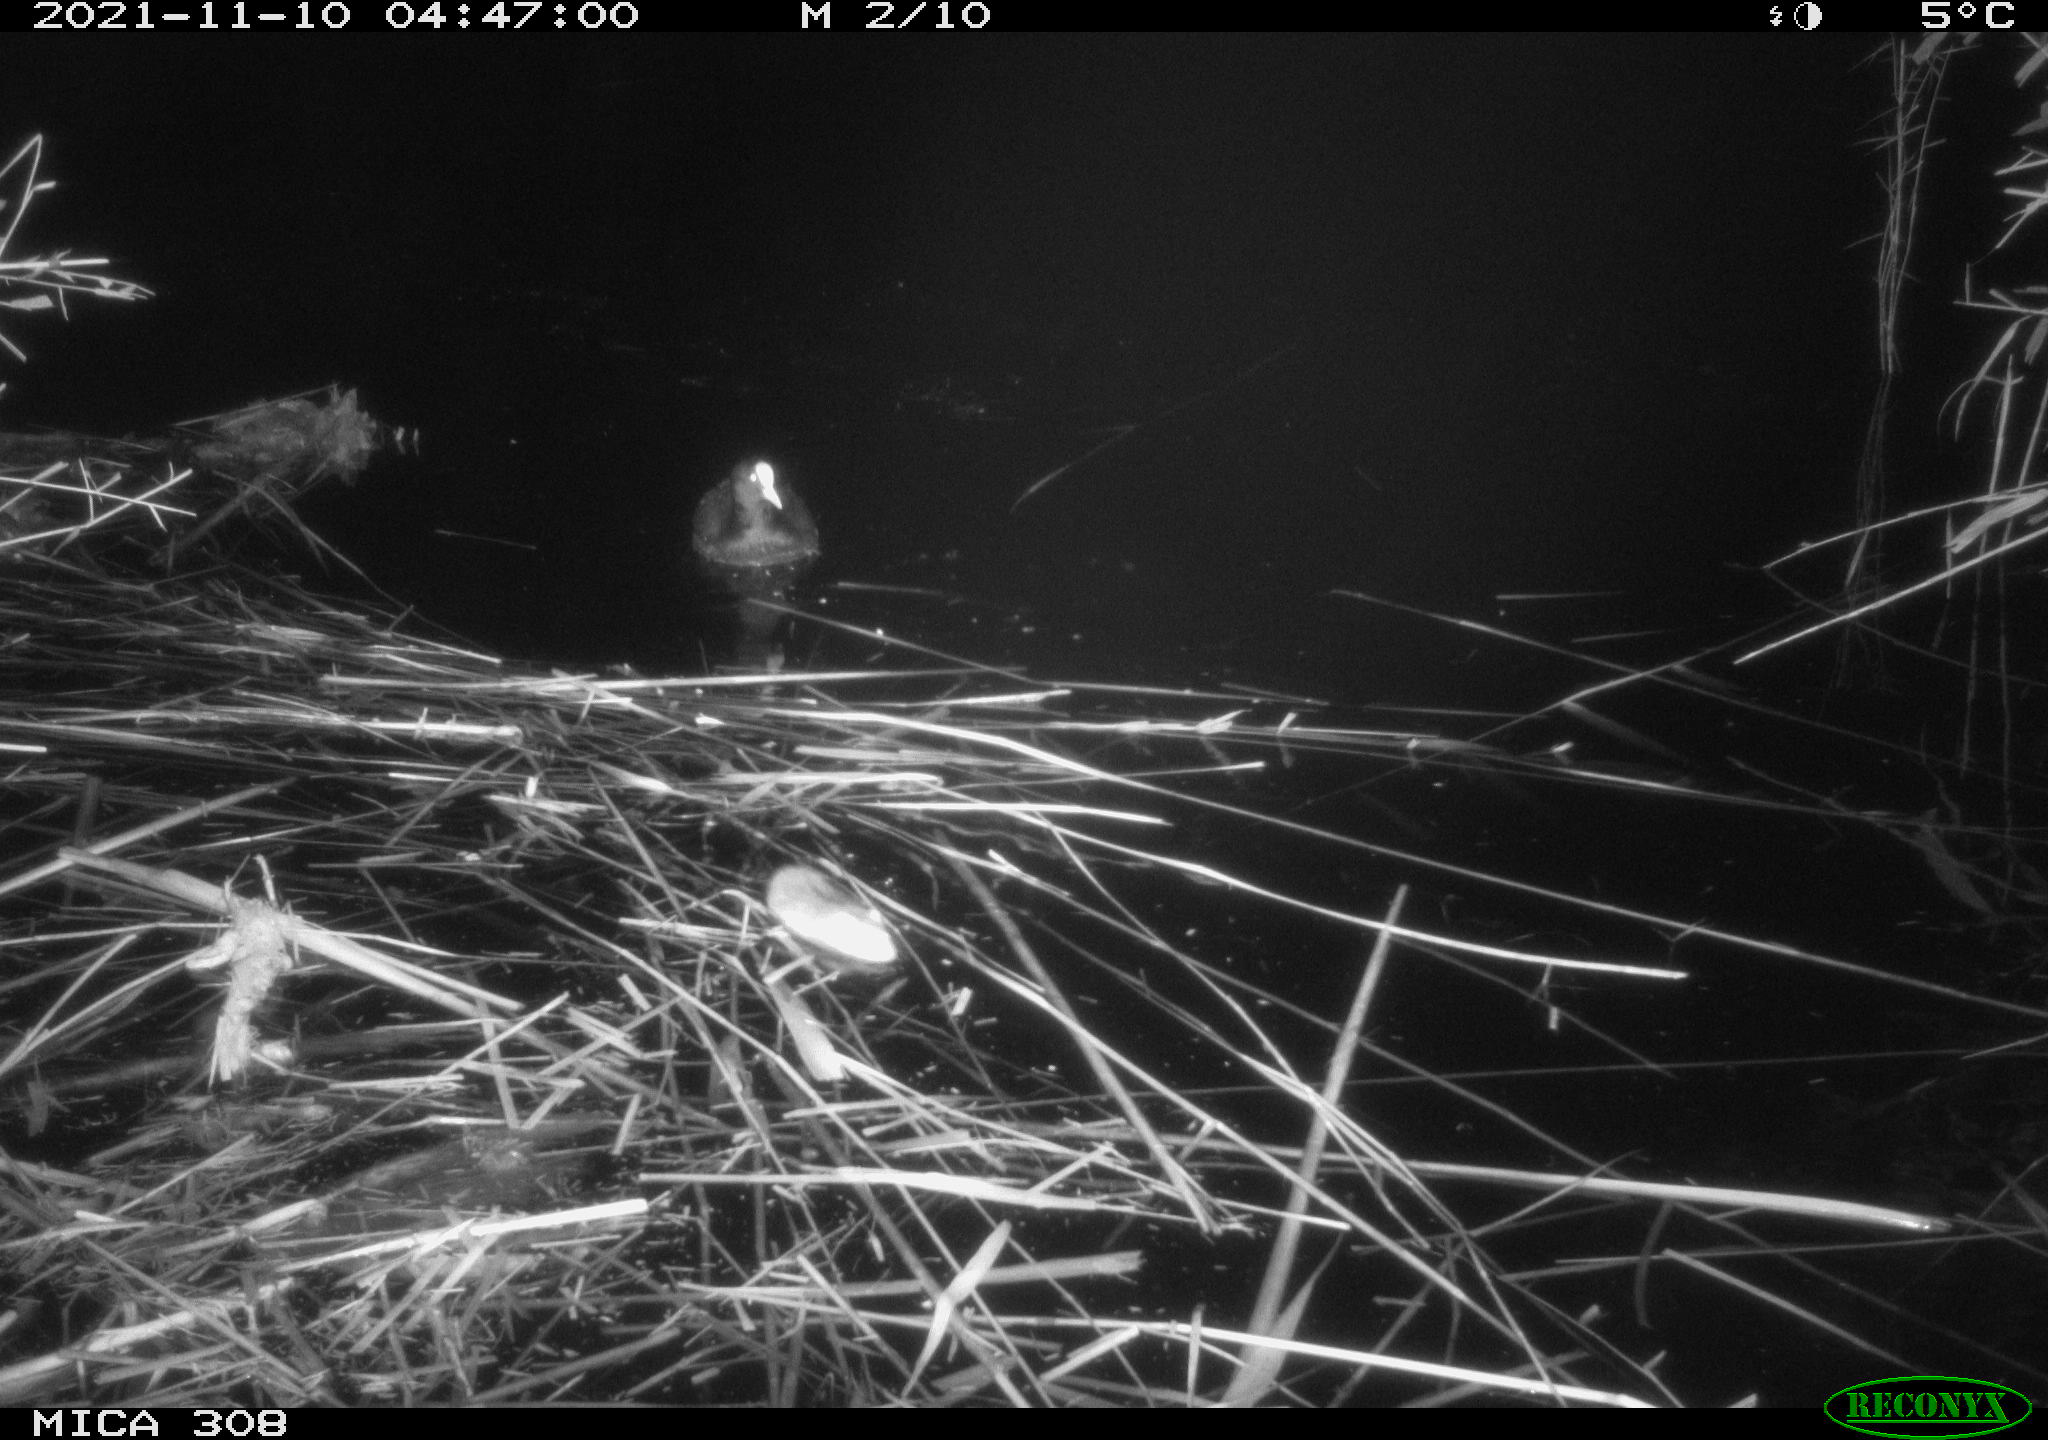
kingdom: Animalia
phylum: Chordata
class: Aves
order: Gruiformes
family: Rallidae
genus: Fulica
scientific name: Fulica atra
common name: Eurasian coot
